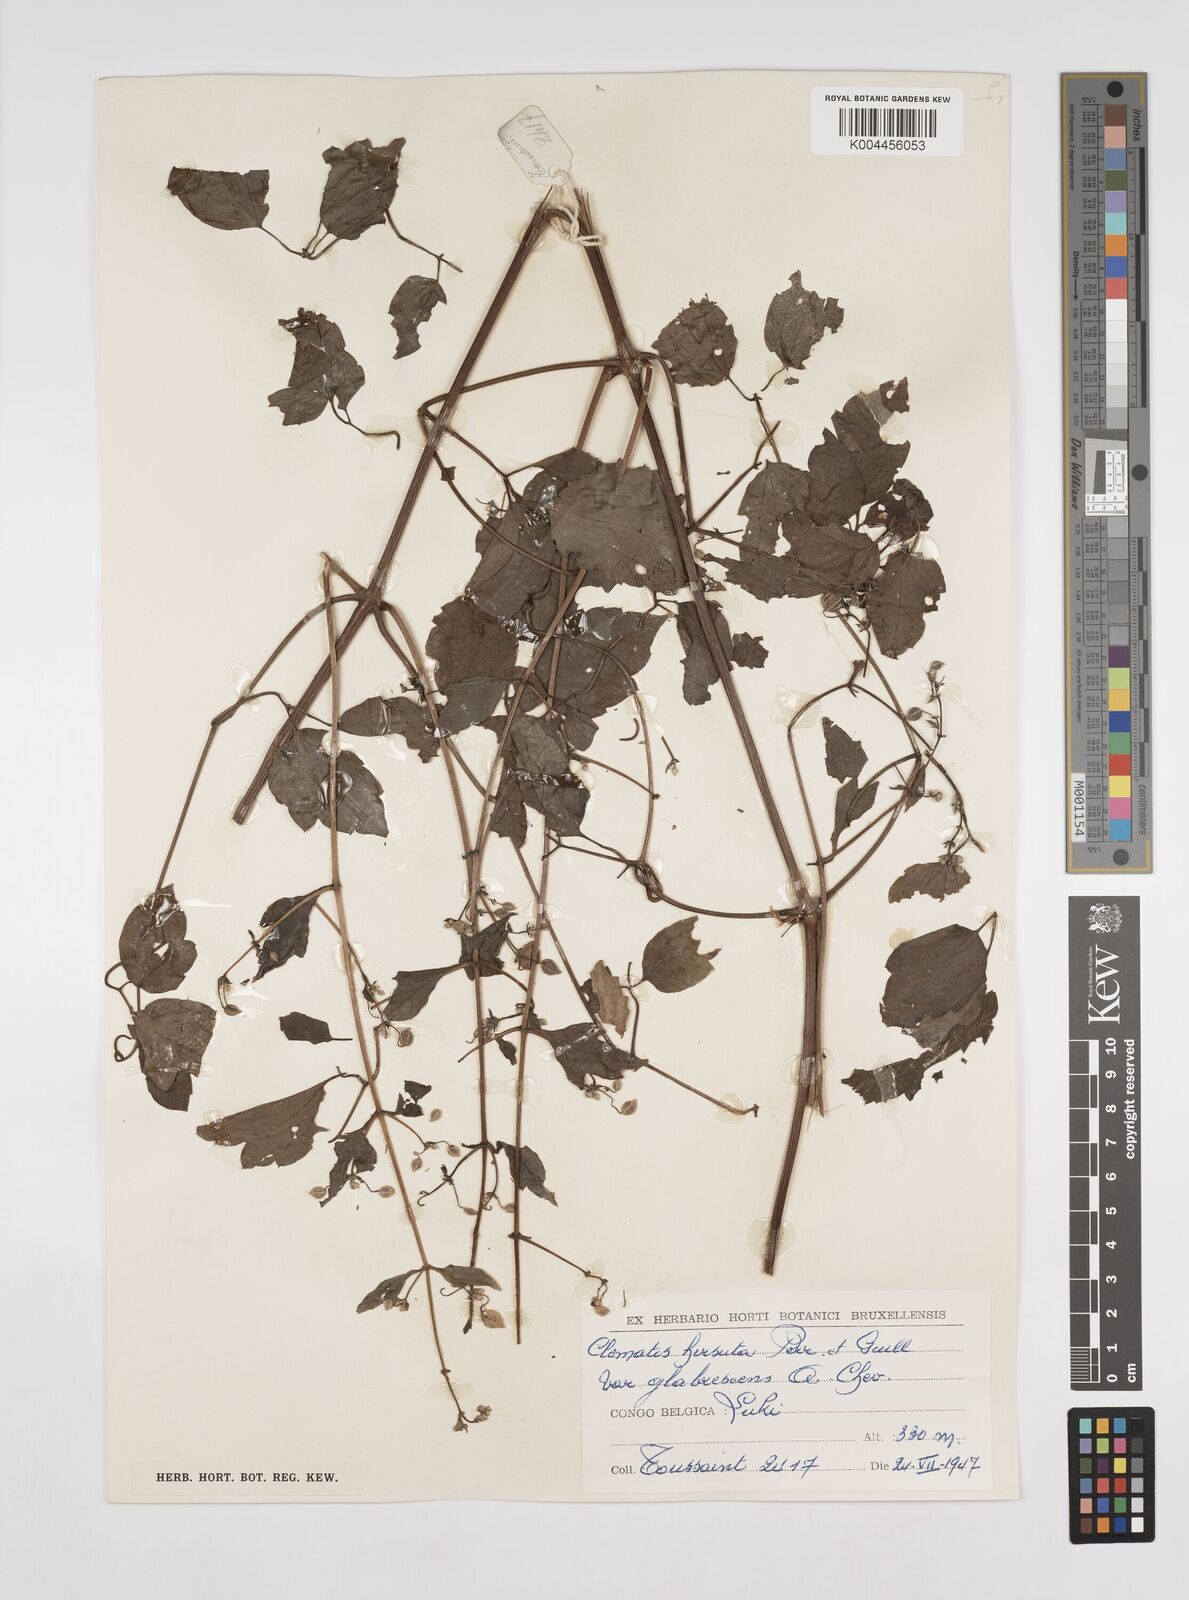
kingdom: Plantae
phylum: Tracheophyta
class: Magnoliopsida
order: Ranunculales
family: Ranunculaceae
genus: Clematis
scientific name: Clematis hirsuta
